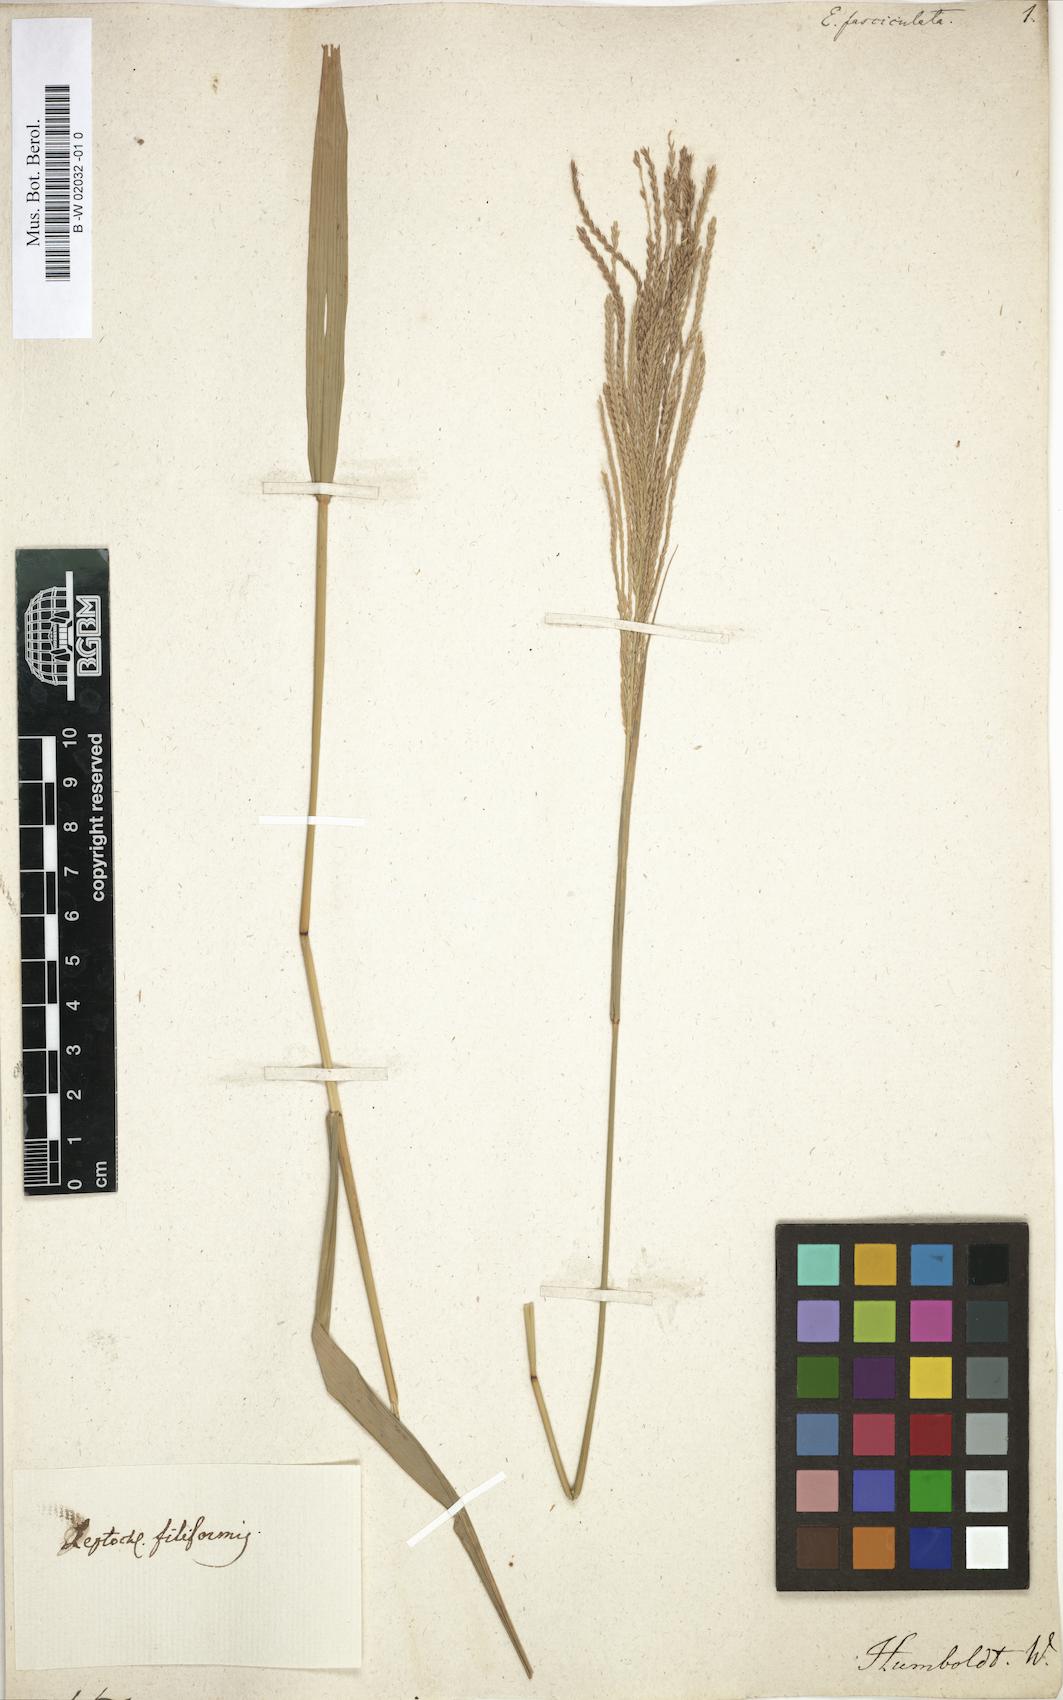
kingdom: Plantae
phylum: Tracheophyta
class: Liliopsida
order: Poales
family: Poaceae
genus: Eleusine
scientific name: Eleusine
